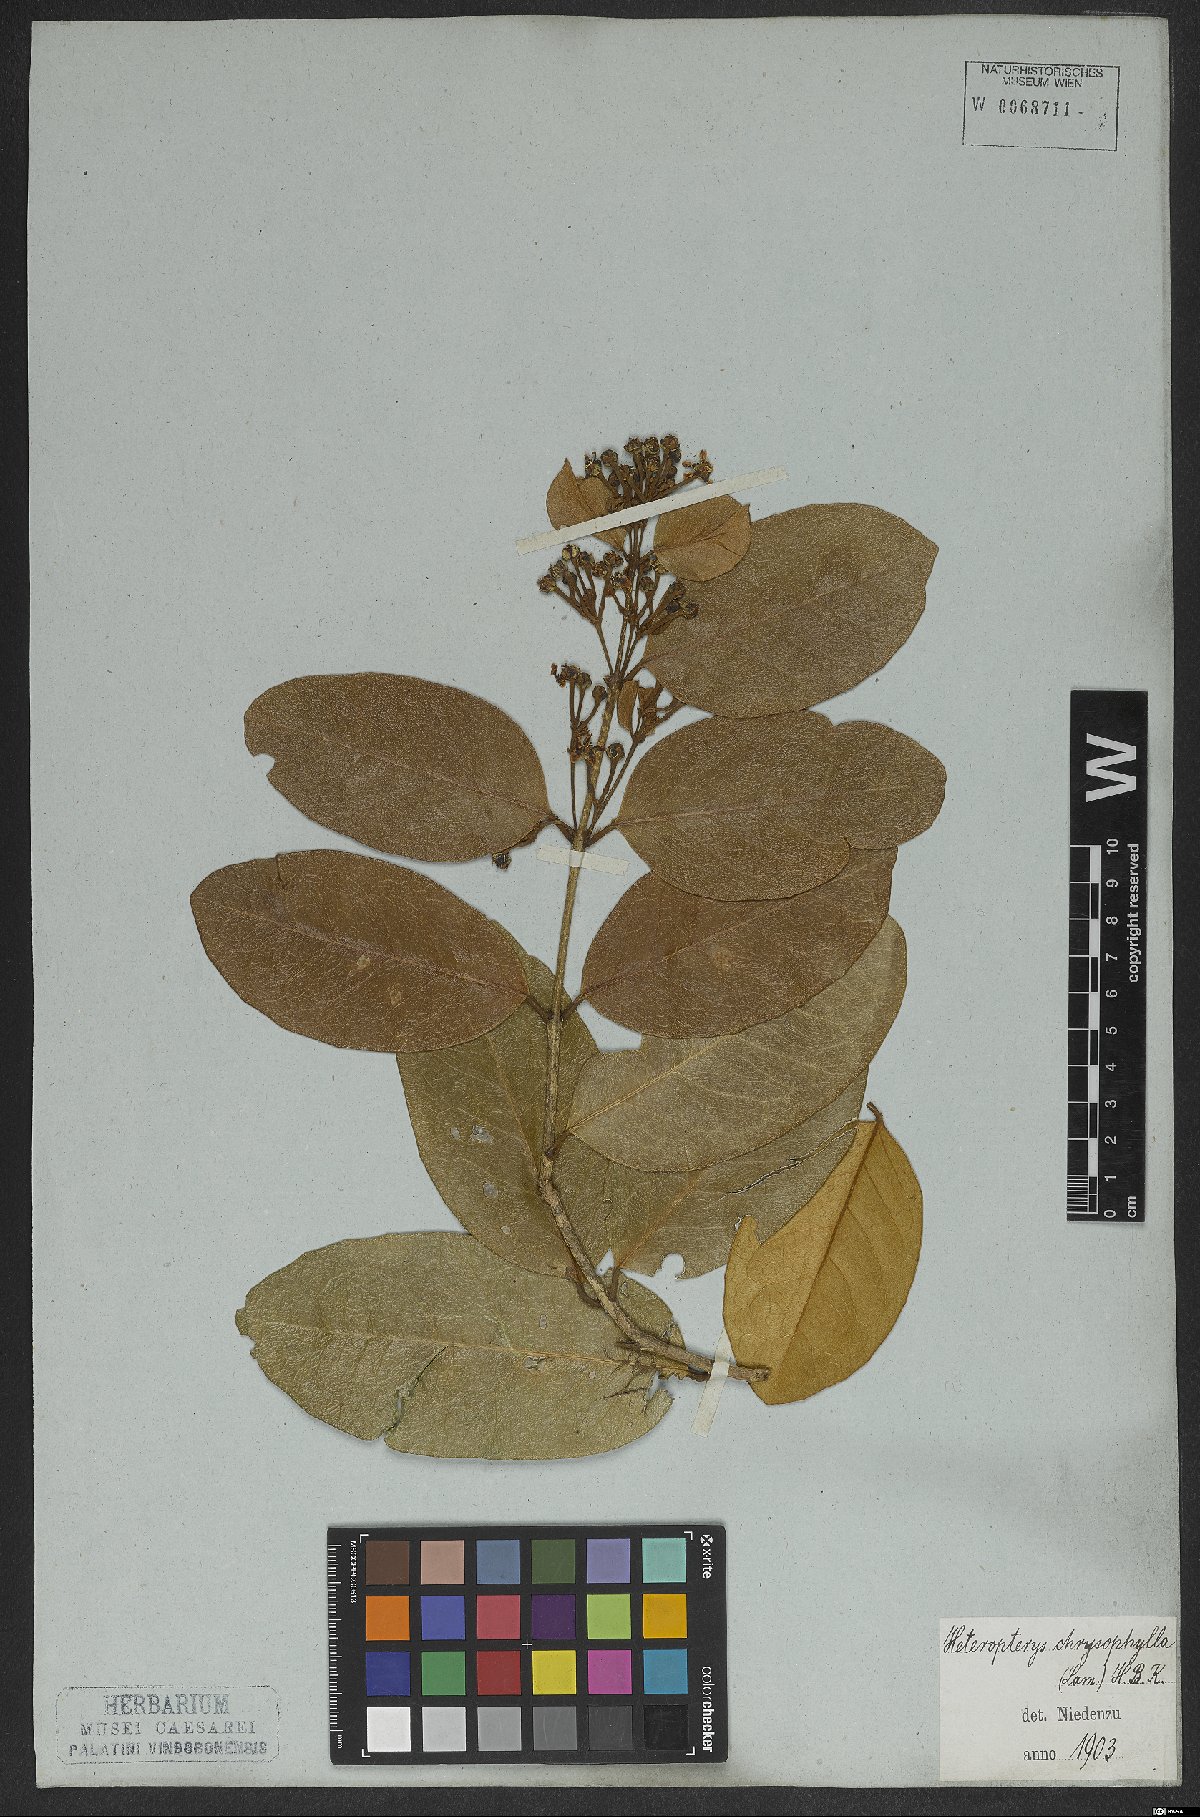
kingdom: Plantae
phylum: Tracheophyta
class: Magnoliopsida
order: Malpighiales
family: Malpighiaceae
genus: Heteropterys
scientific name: Heteropterys chrysophylla
